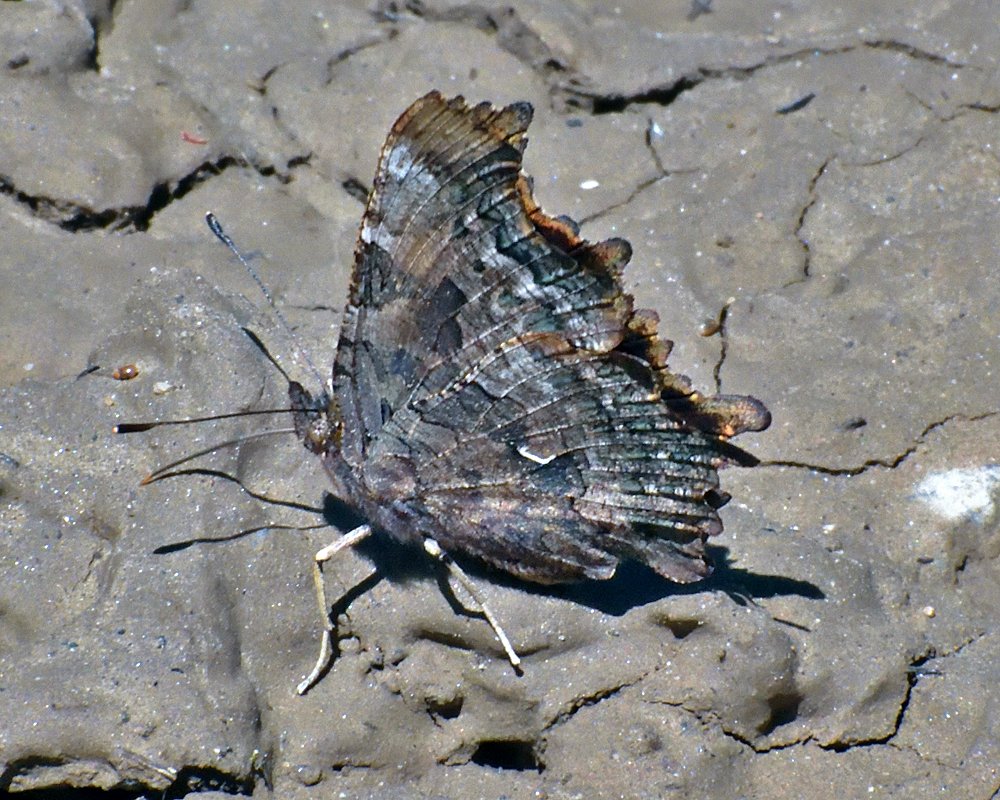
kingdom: Animalia
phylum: Arthropoda
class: Insecta
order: Lepidoptera
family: Nymphalidae
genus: Polygonia
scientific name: Polygonia faunus
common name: Green Comma
